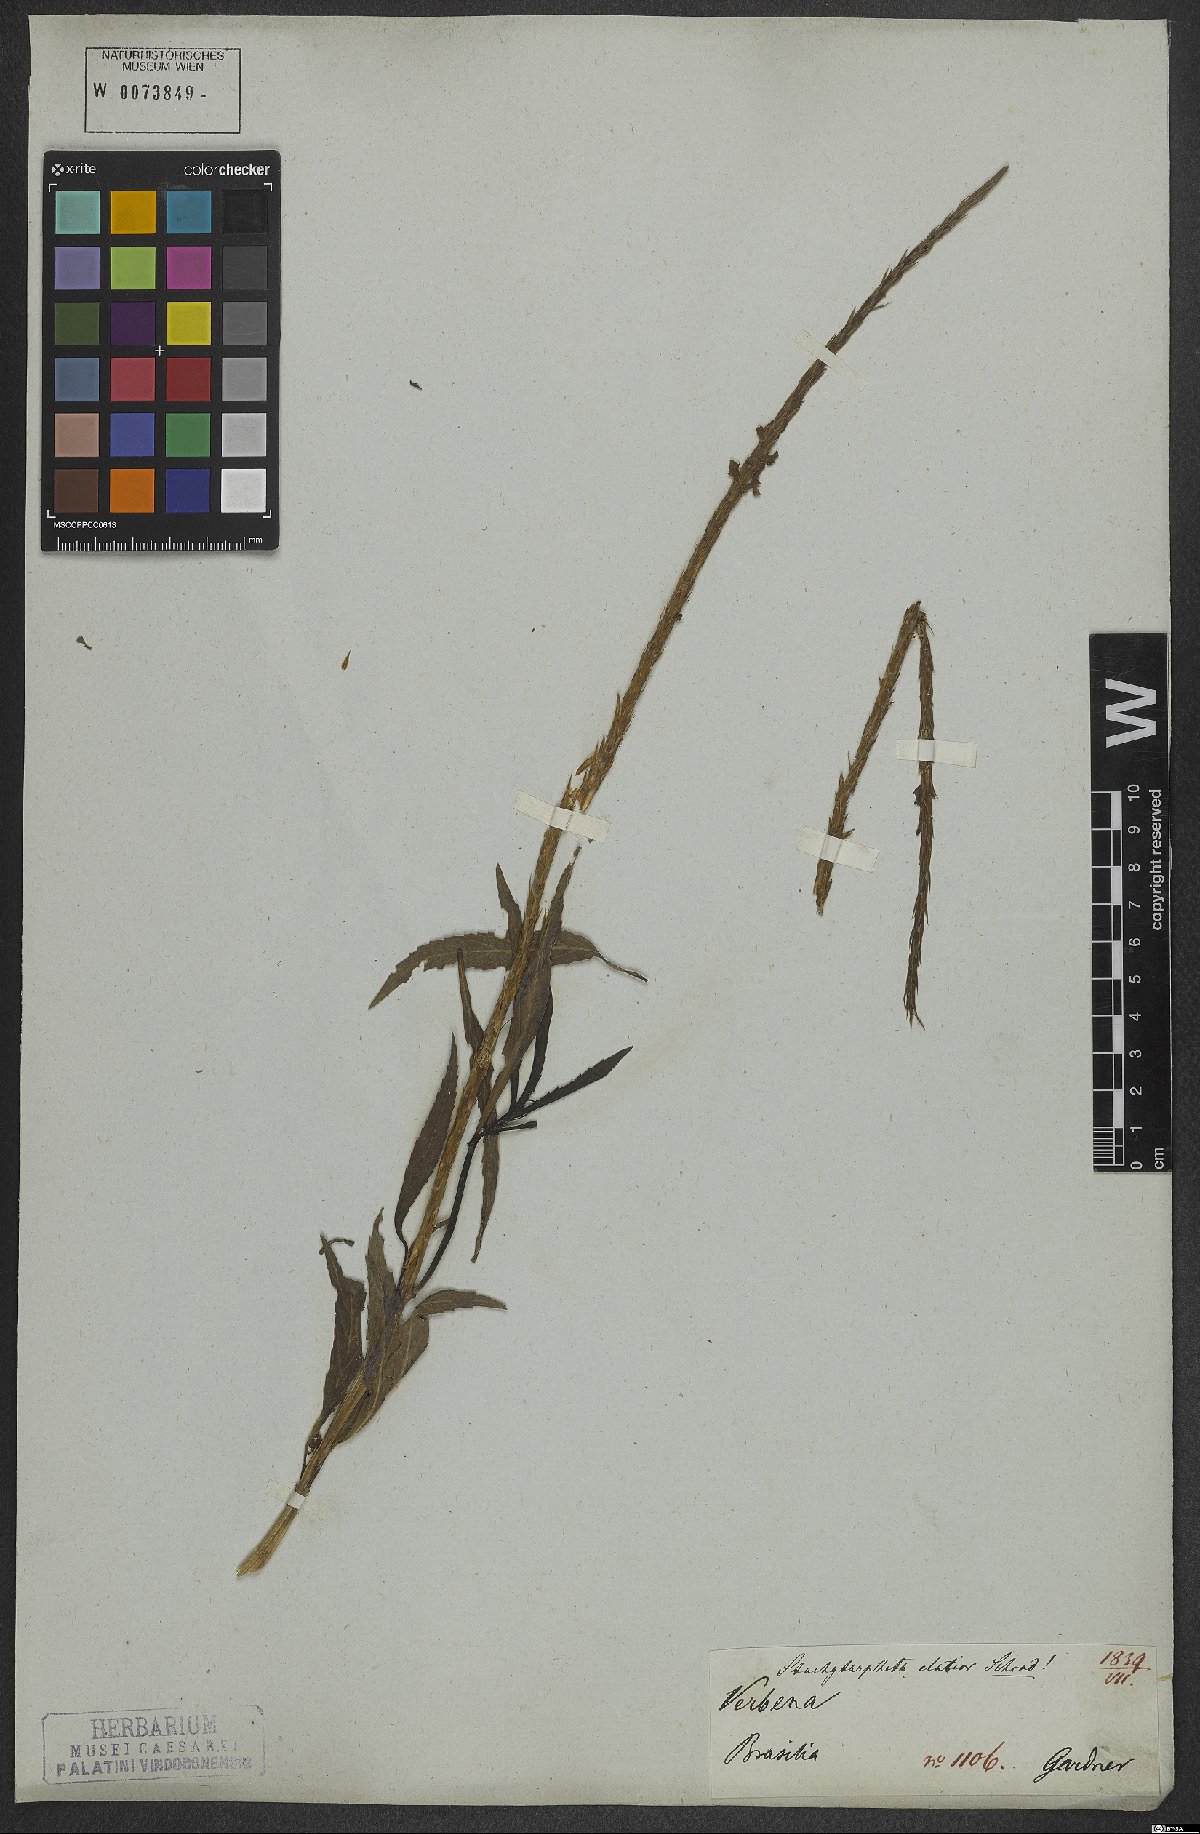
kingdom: Plantae
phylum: Tracheophyta
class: Magnoliopsida
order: Lamiales
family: Verbenaceae
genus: Stachytarpheta
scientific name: Stachytarpheta indica
